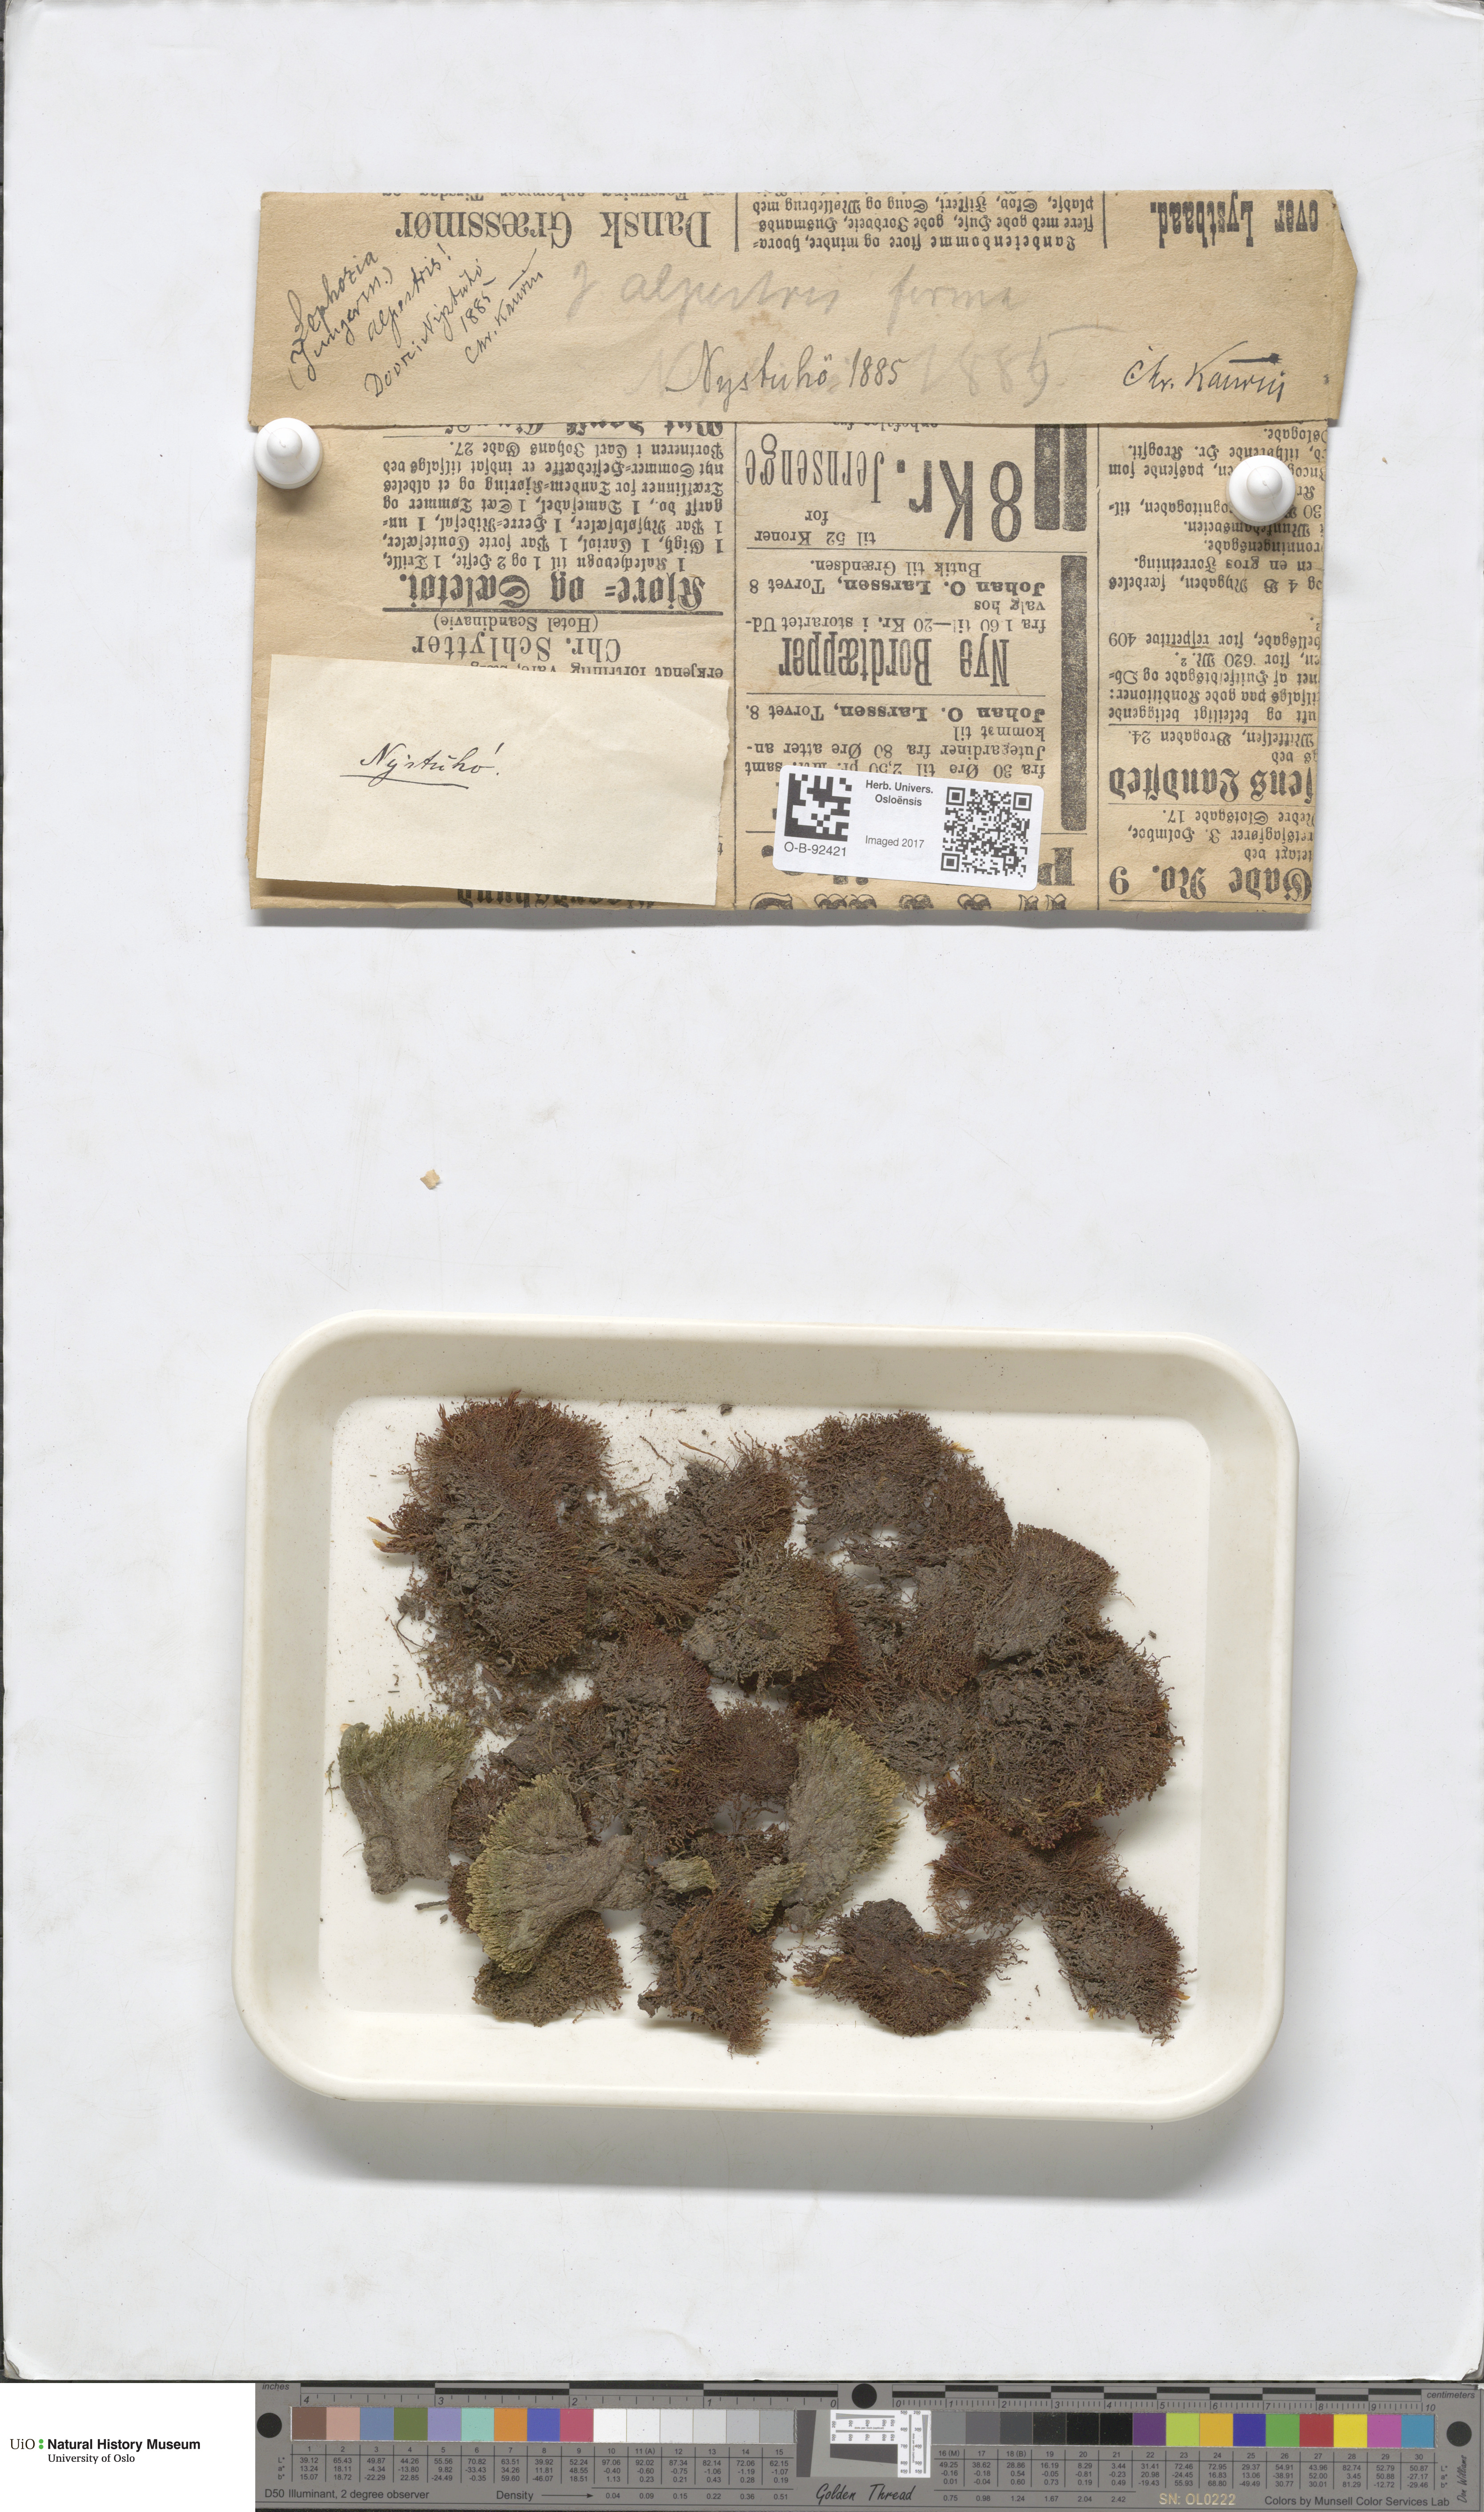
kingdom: Plantae
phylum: Marchantiophyta
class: Jungermanniopsida
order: Jungermanniales
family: Anastrophyllaceae
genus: Barbilophozia
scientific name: Barbilophozia sudetica
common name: Hill notchwort
